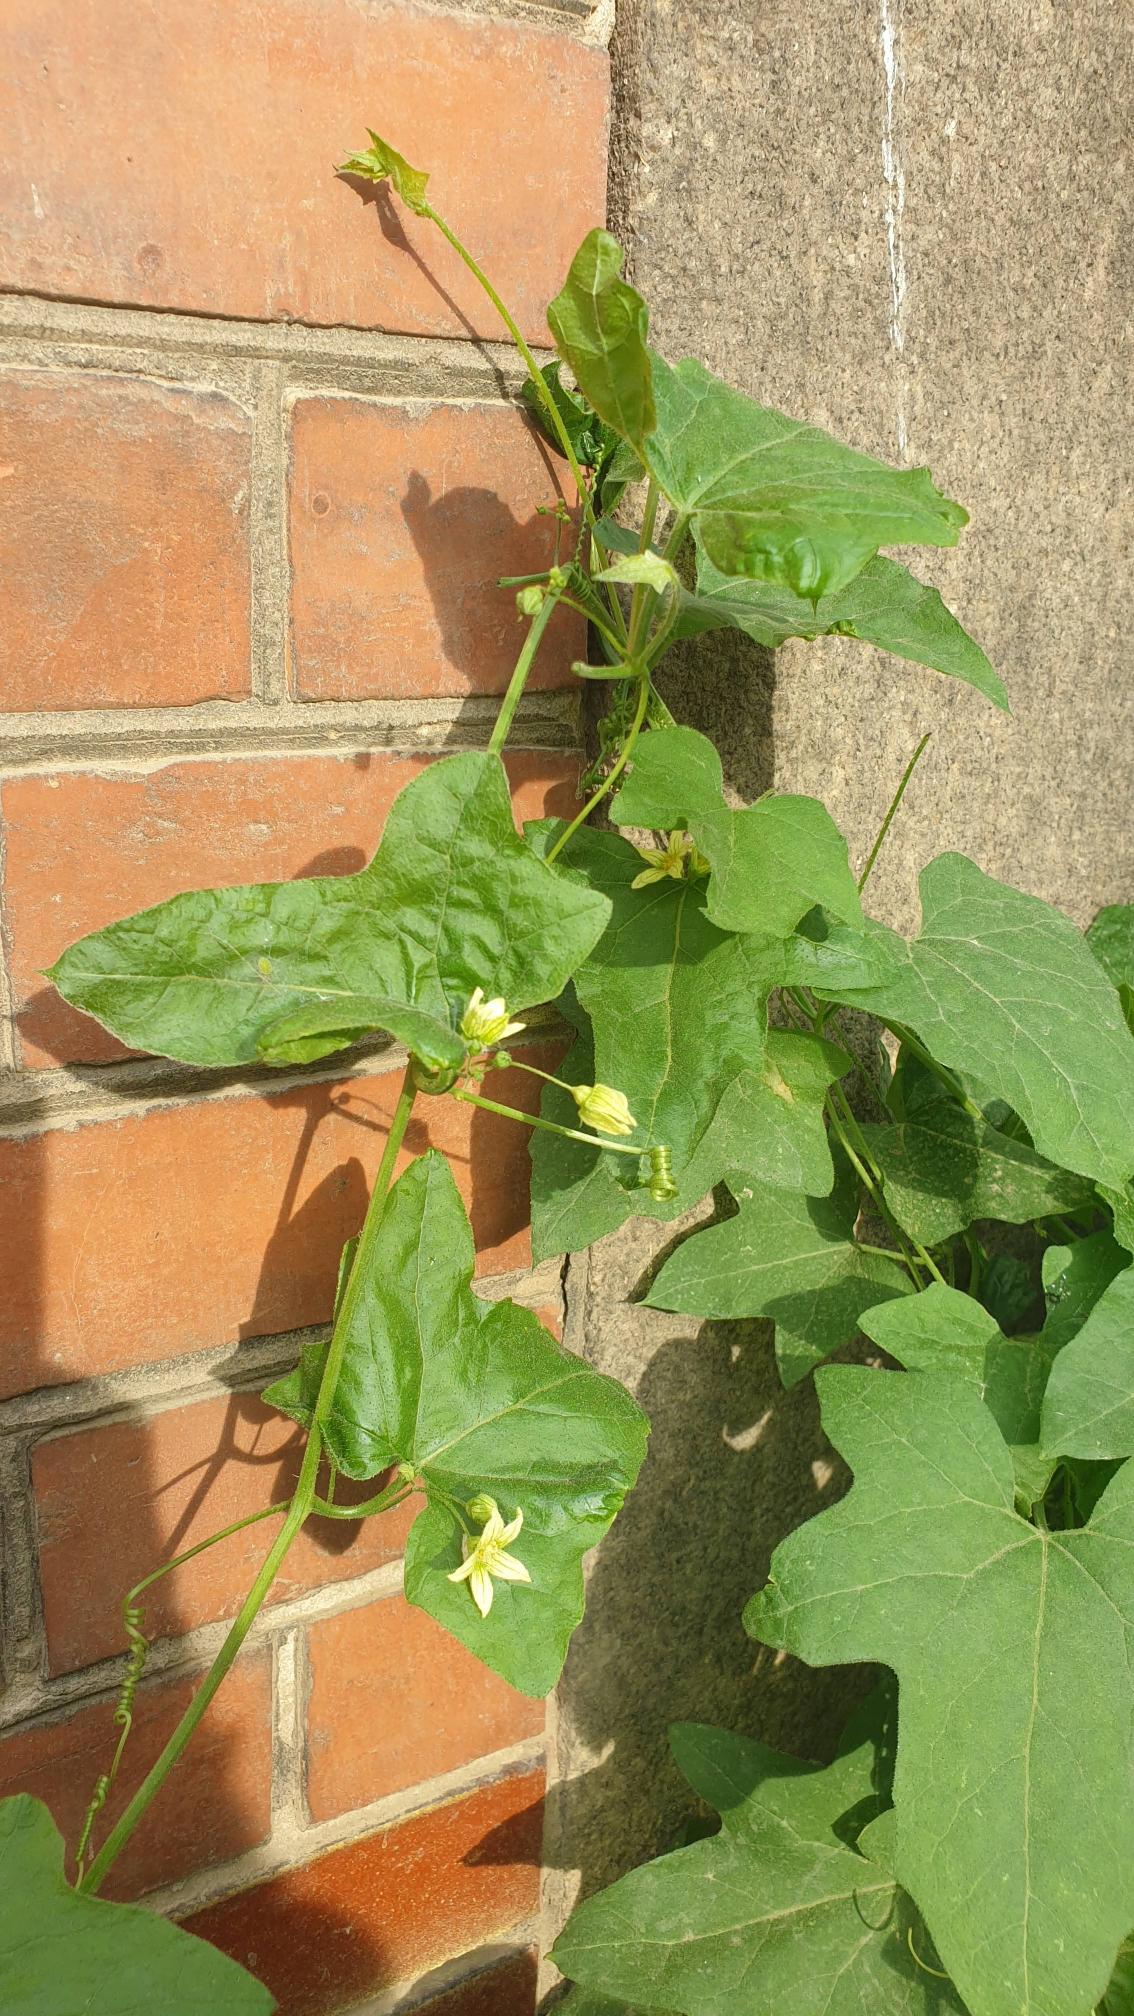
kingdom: Plantae
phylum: Tracheophyta
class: Magnoliopsida
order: Cucurbitales
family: Cucurbitaceae
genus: Bryonia
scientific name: Bryonia dioica
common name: Tvebo galdebær
